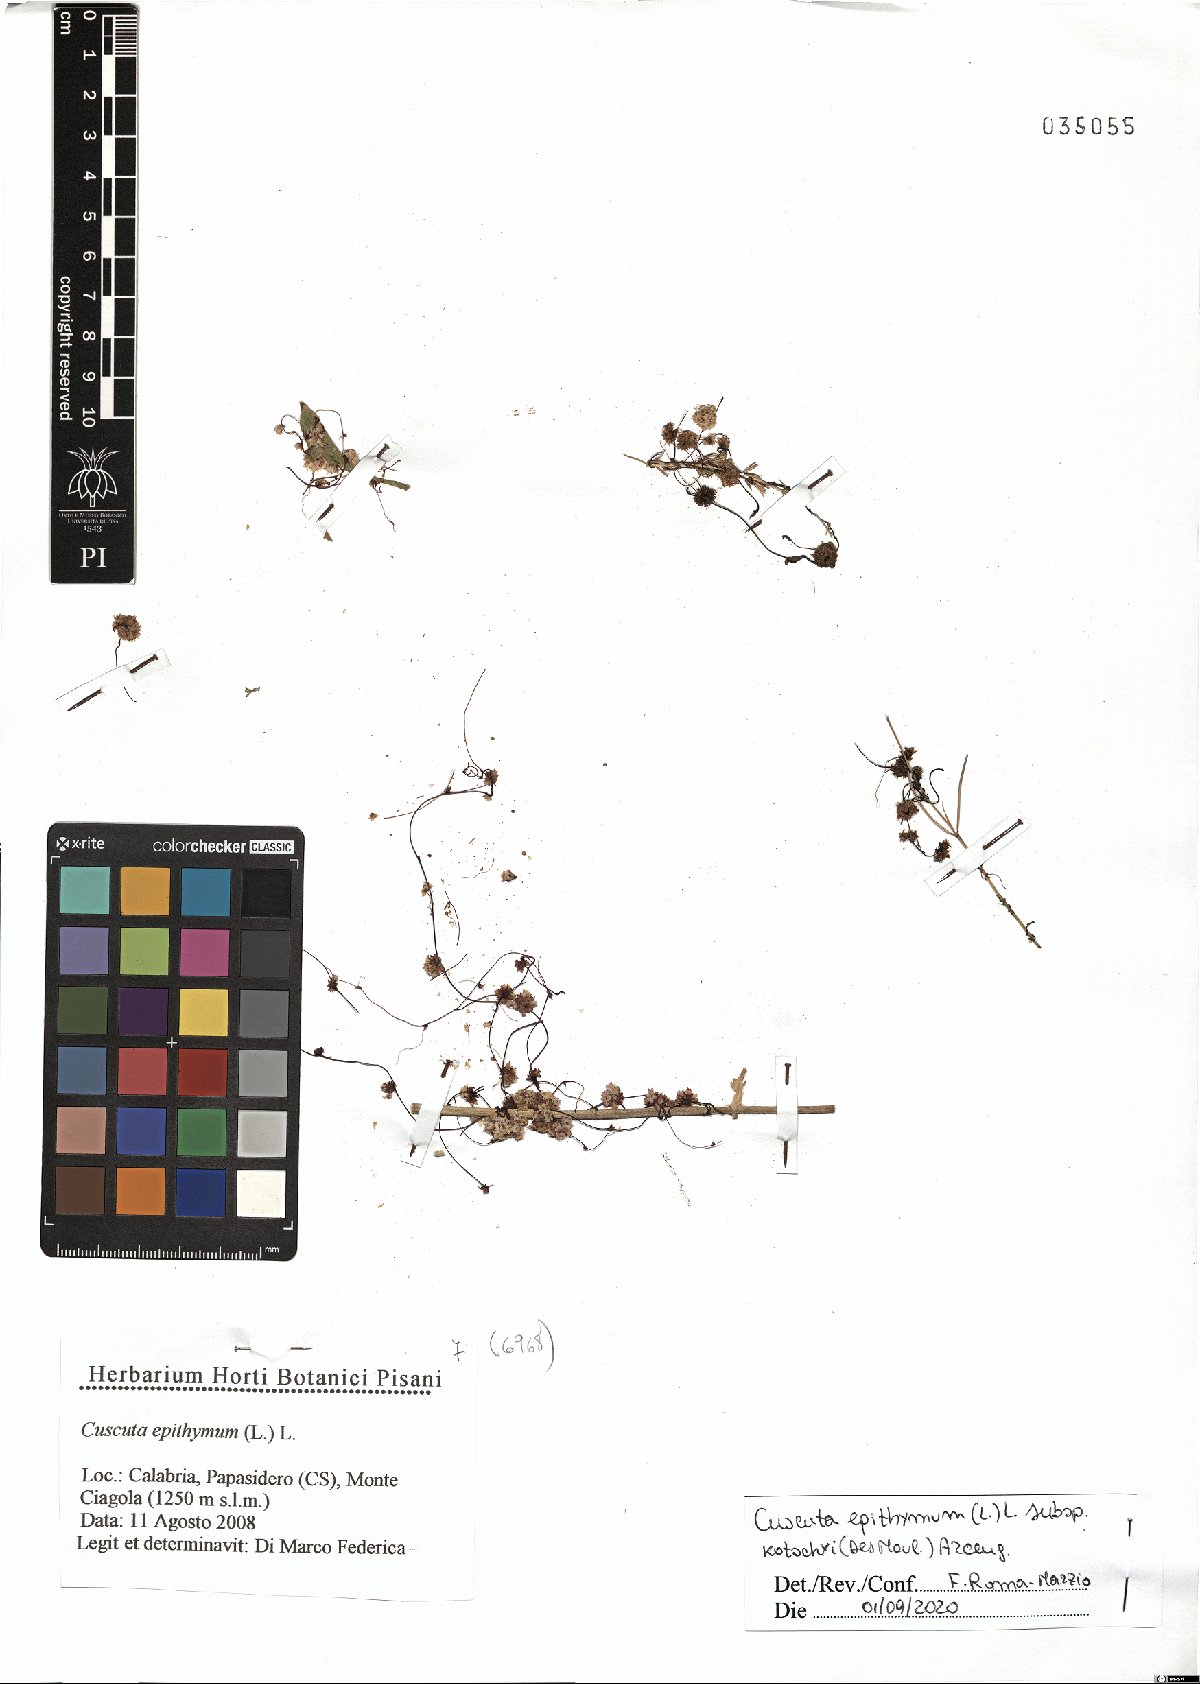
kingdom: Plantae
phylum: Tracheophyta
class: Magnoliopsida
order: Solanales
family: Convolvulaceae
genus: Cuscuta
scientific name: Cuscuta epithymum
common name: Clover dodder
